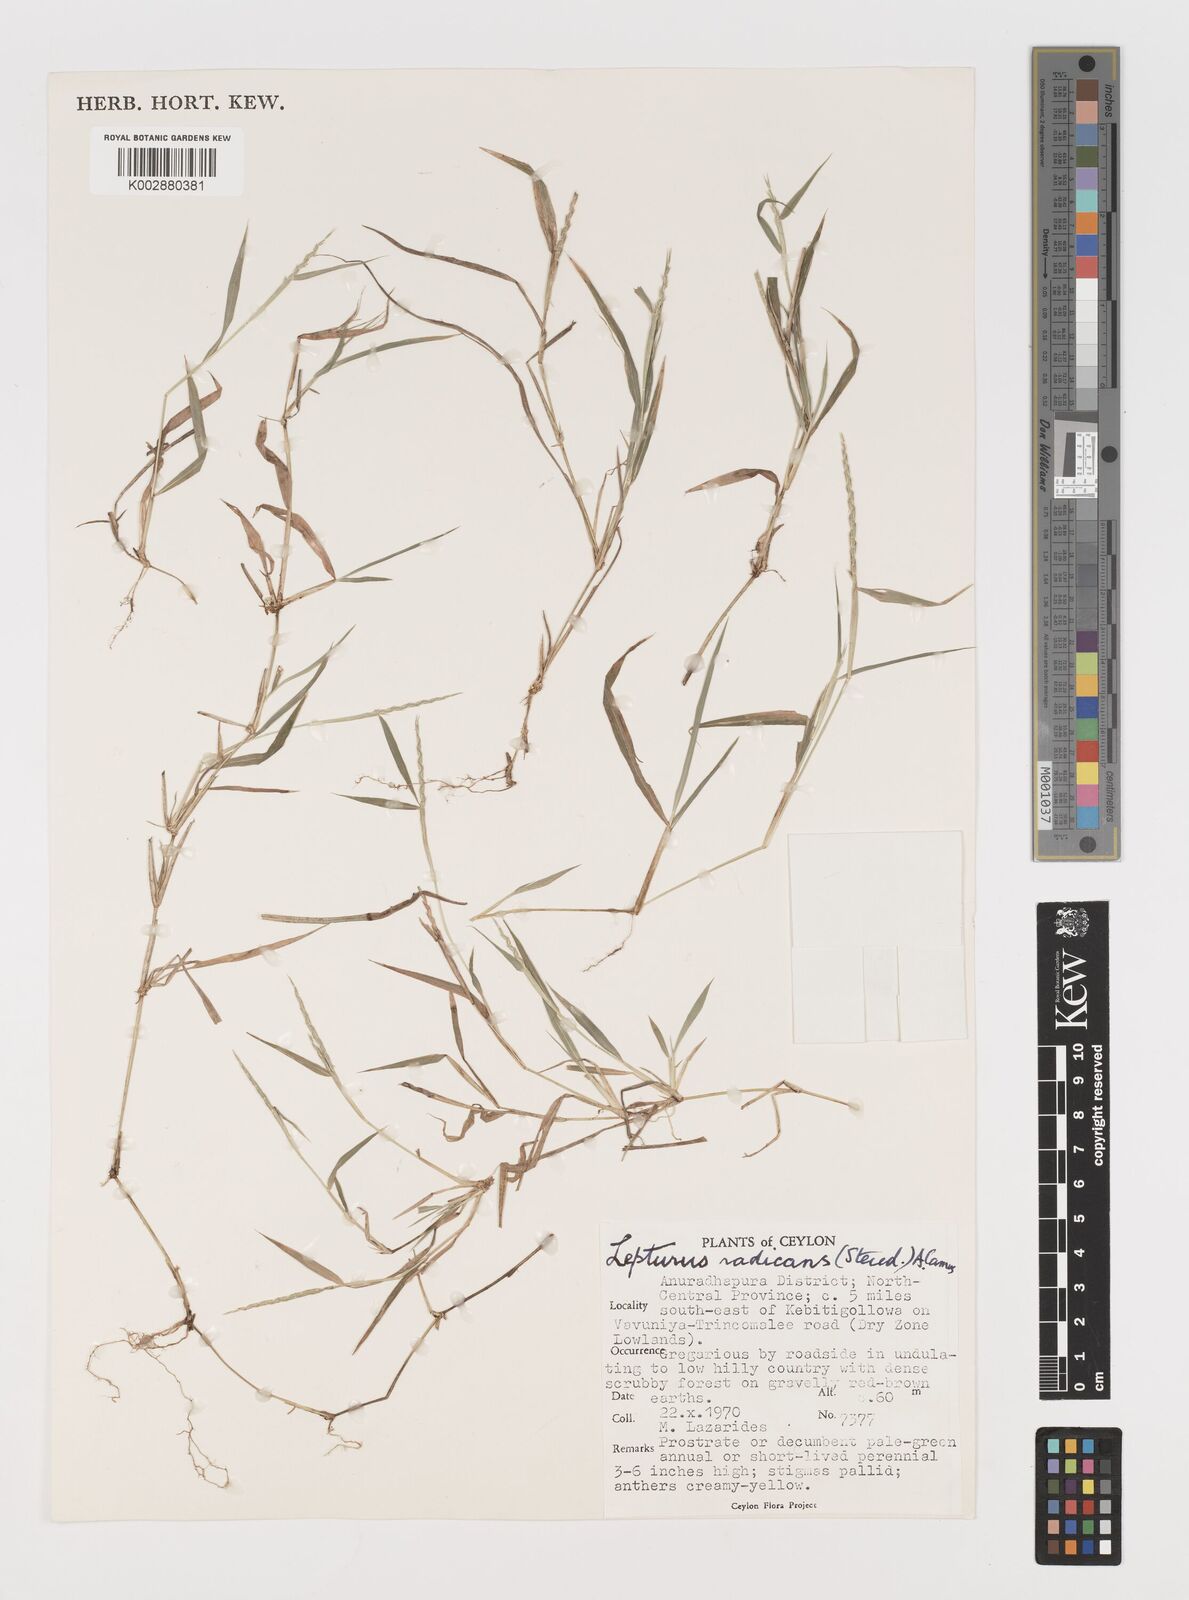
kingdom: Plantae
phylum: Tracheophyta
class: Liliopsida
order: Poales
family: Poaceae
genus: Lepturus
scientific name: Lepturus radicans
